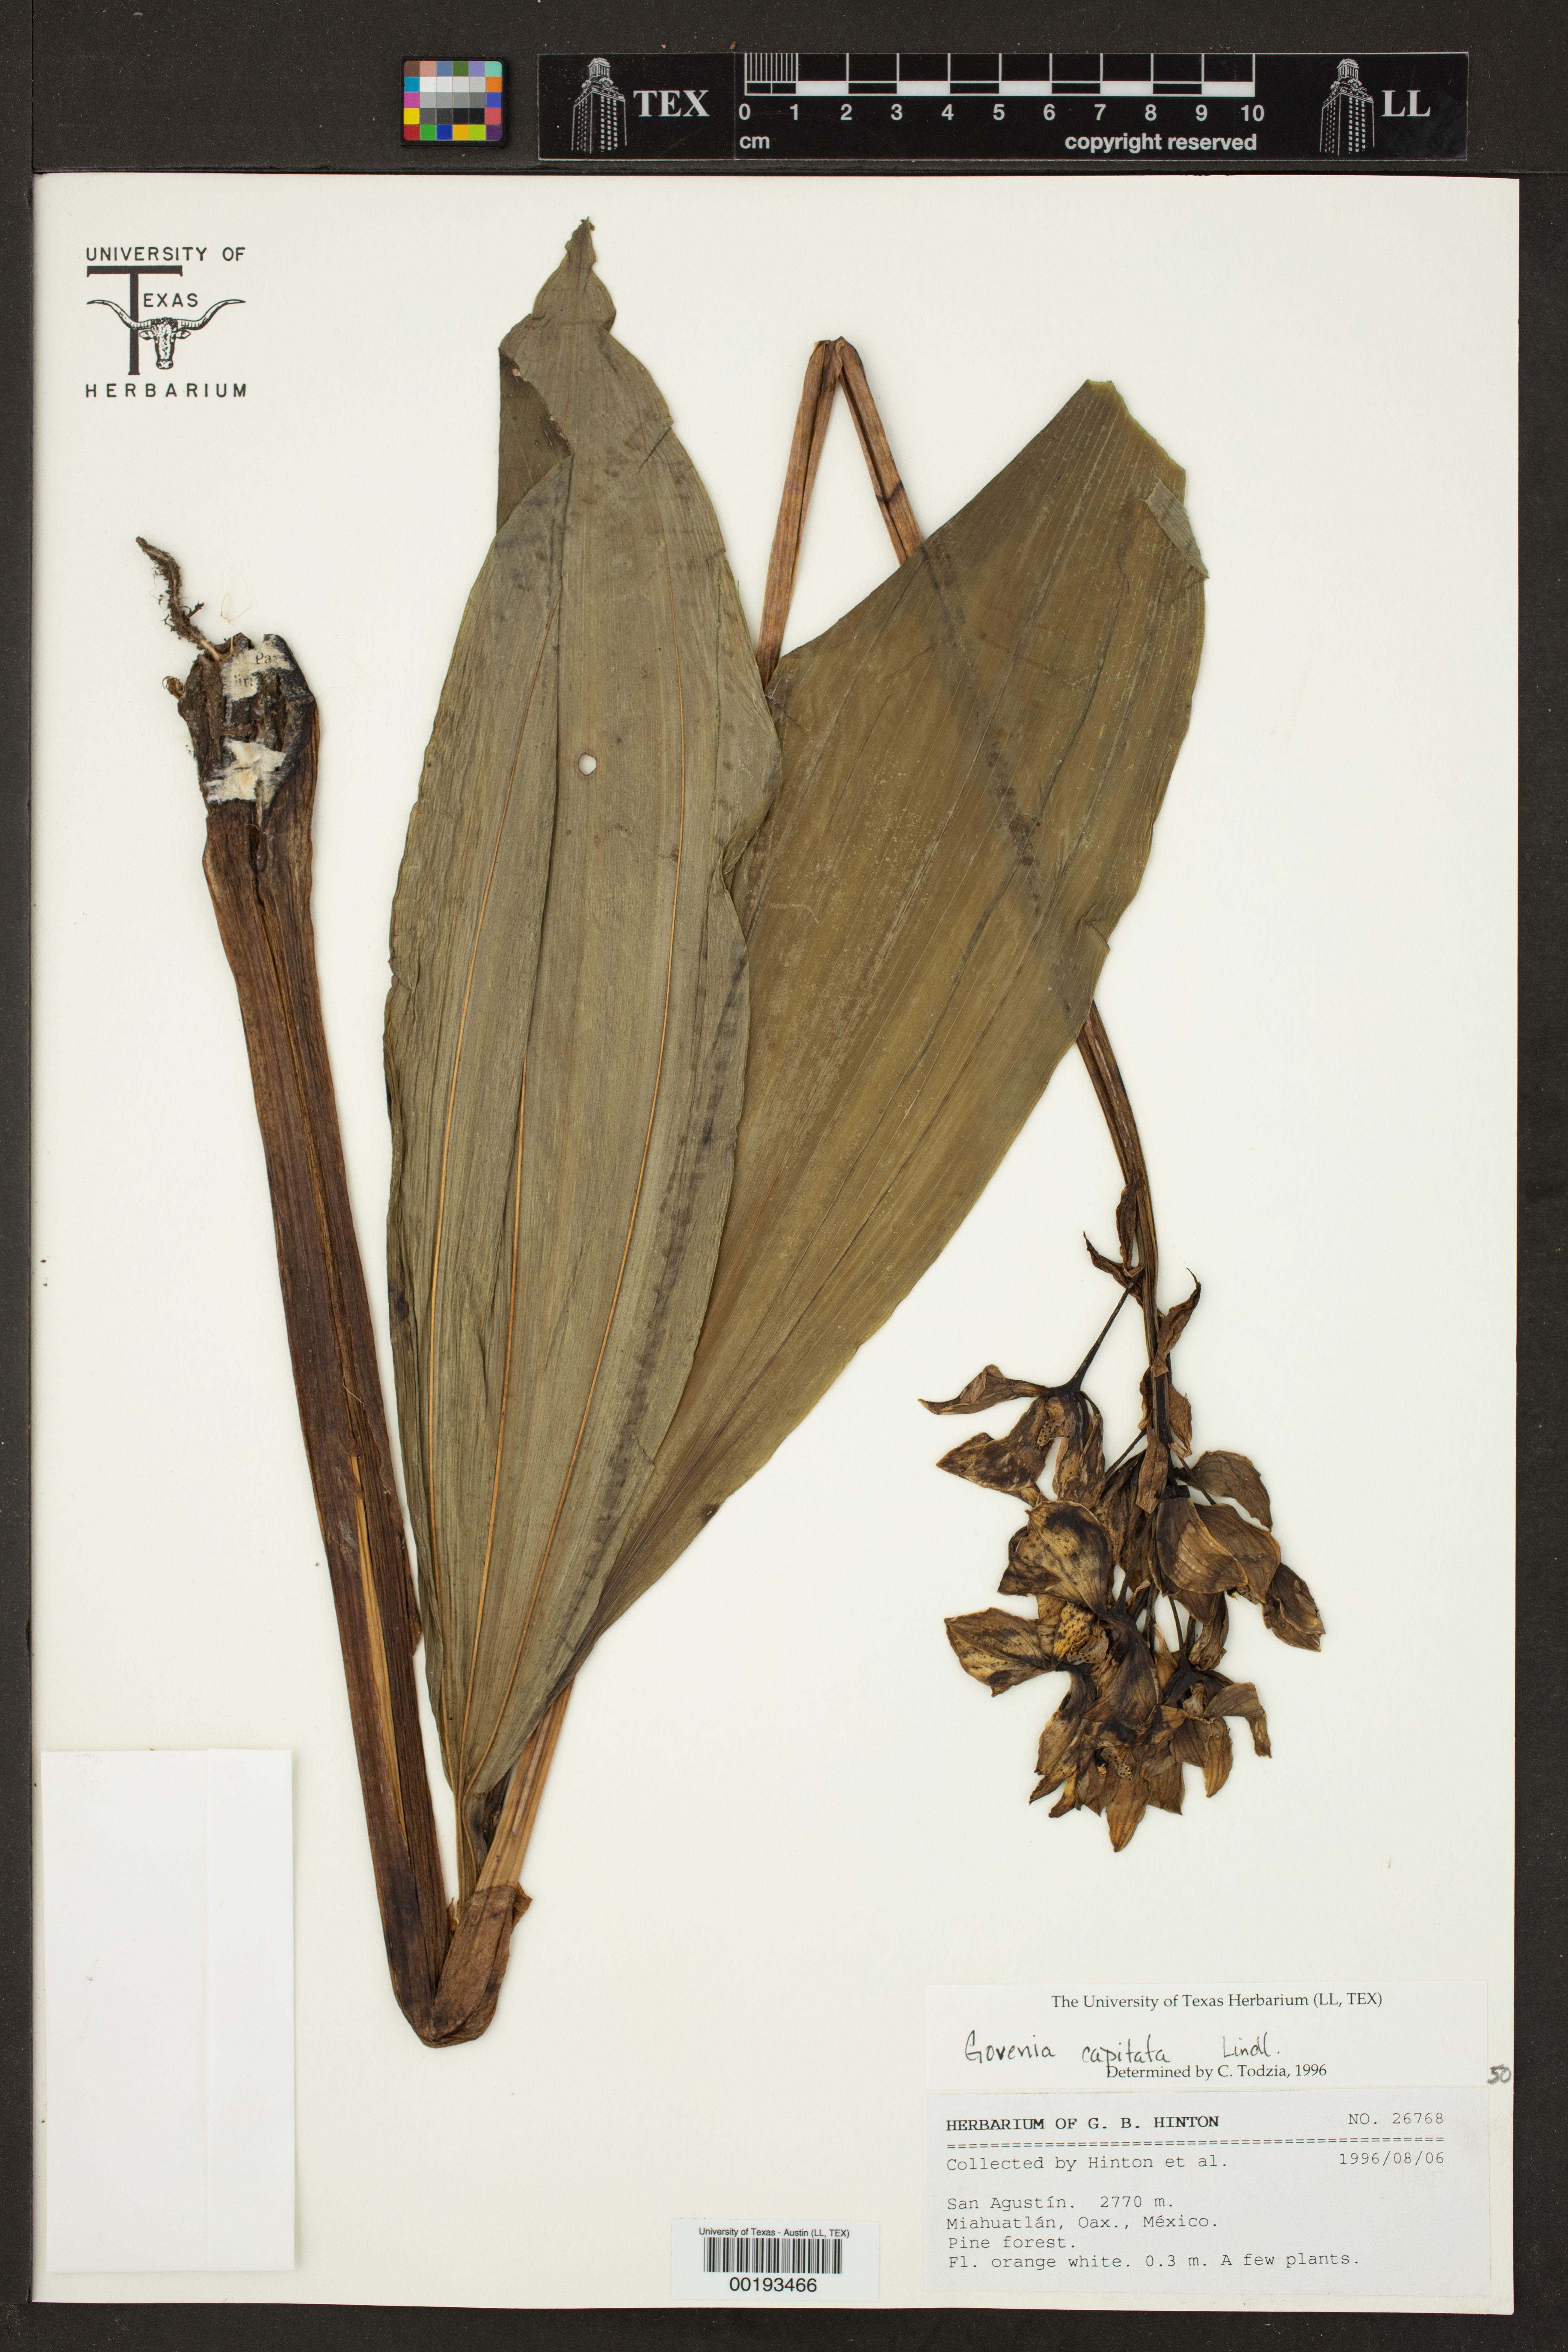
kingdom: Plantae
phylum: Tracheophyta
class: Liliopsida
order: Asparagales
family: Orchidaceae
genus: Govenia
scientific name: Govenia capitata
